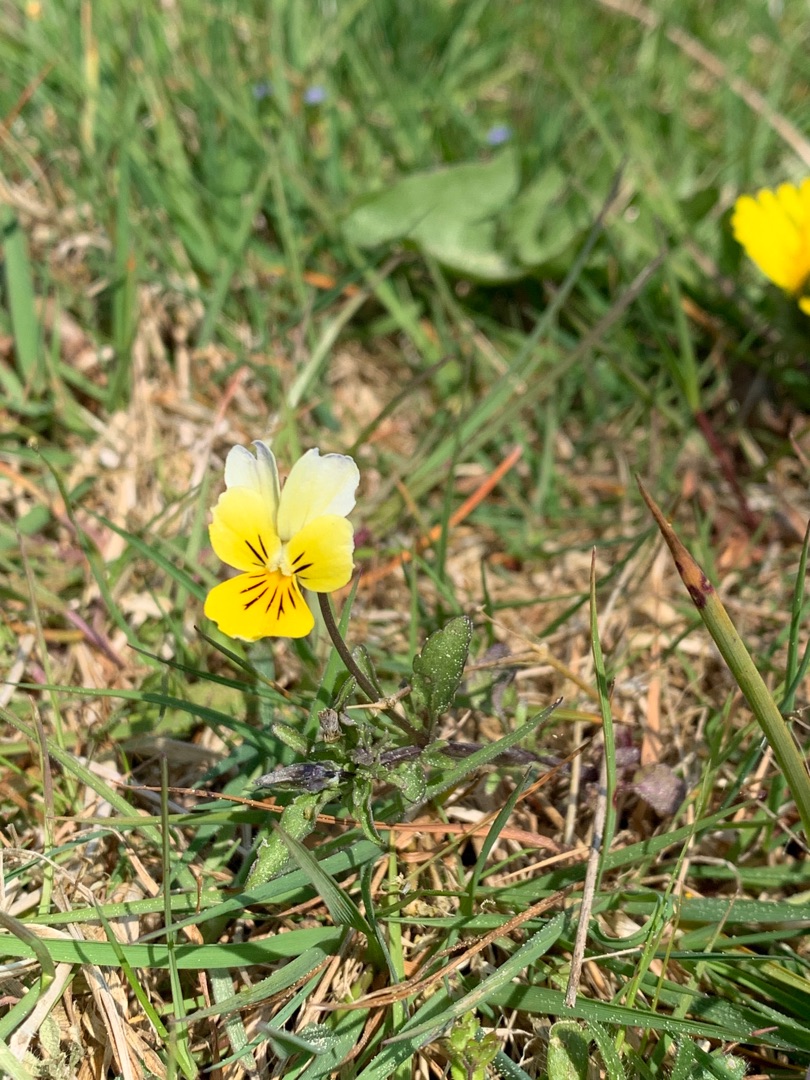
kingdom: Plantae
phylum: Tracheophyta
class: Magnoliopsida
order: Malpighiales
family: Violaceae
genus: Viola
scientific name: Viola tricolor
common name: Stedmoderblomst
